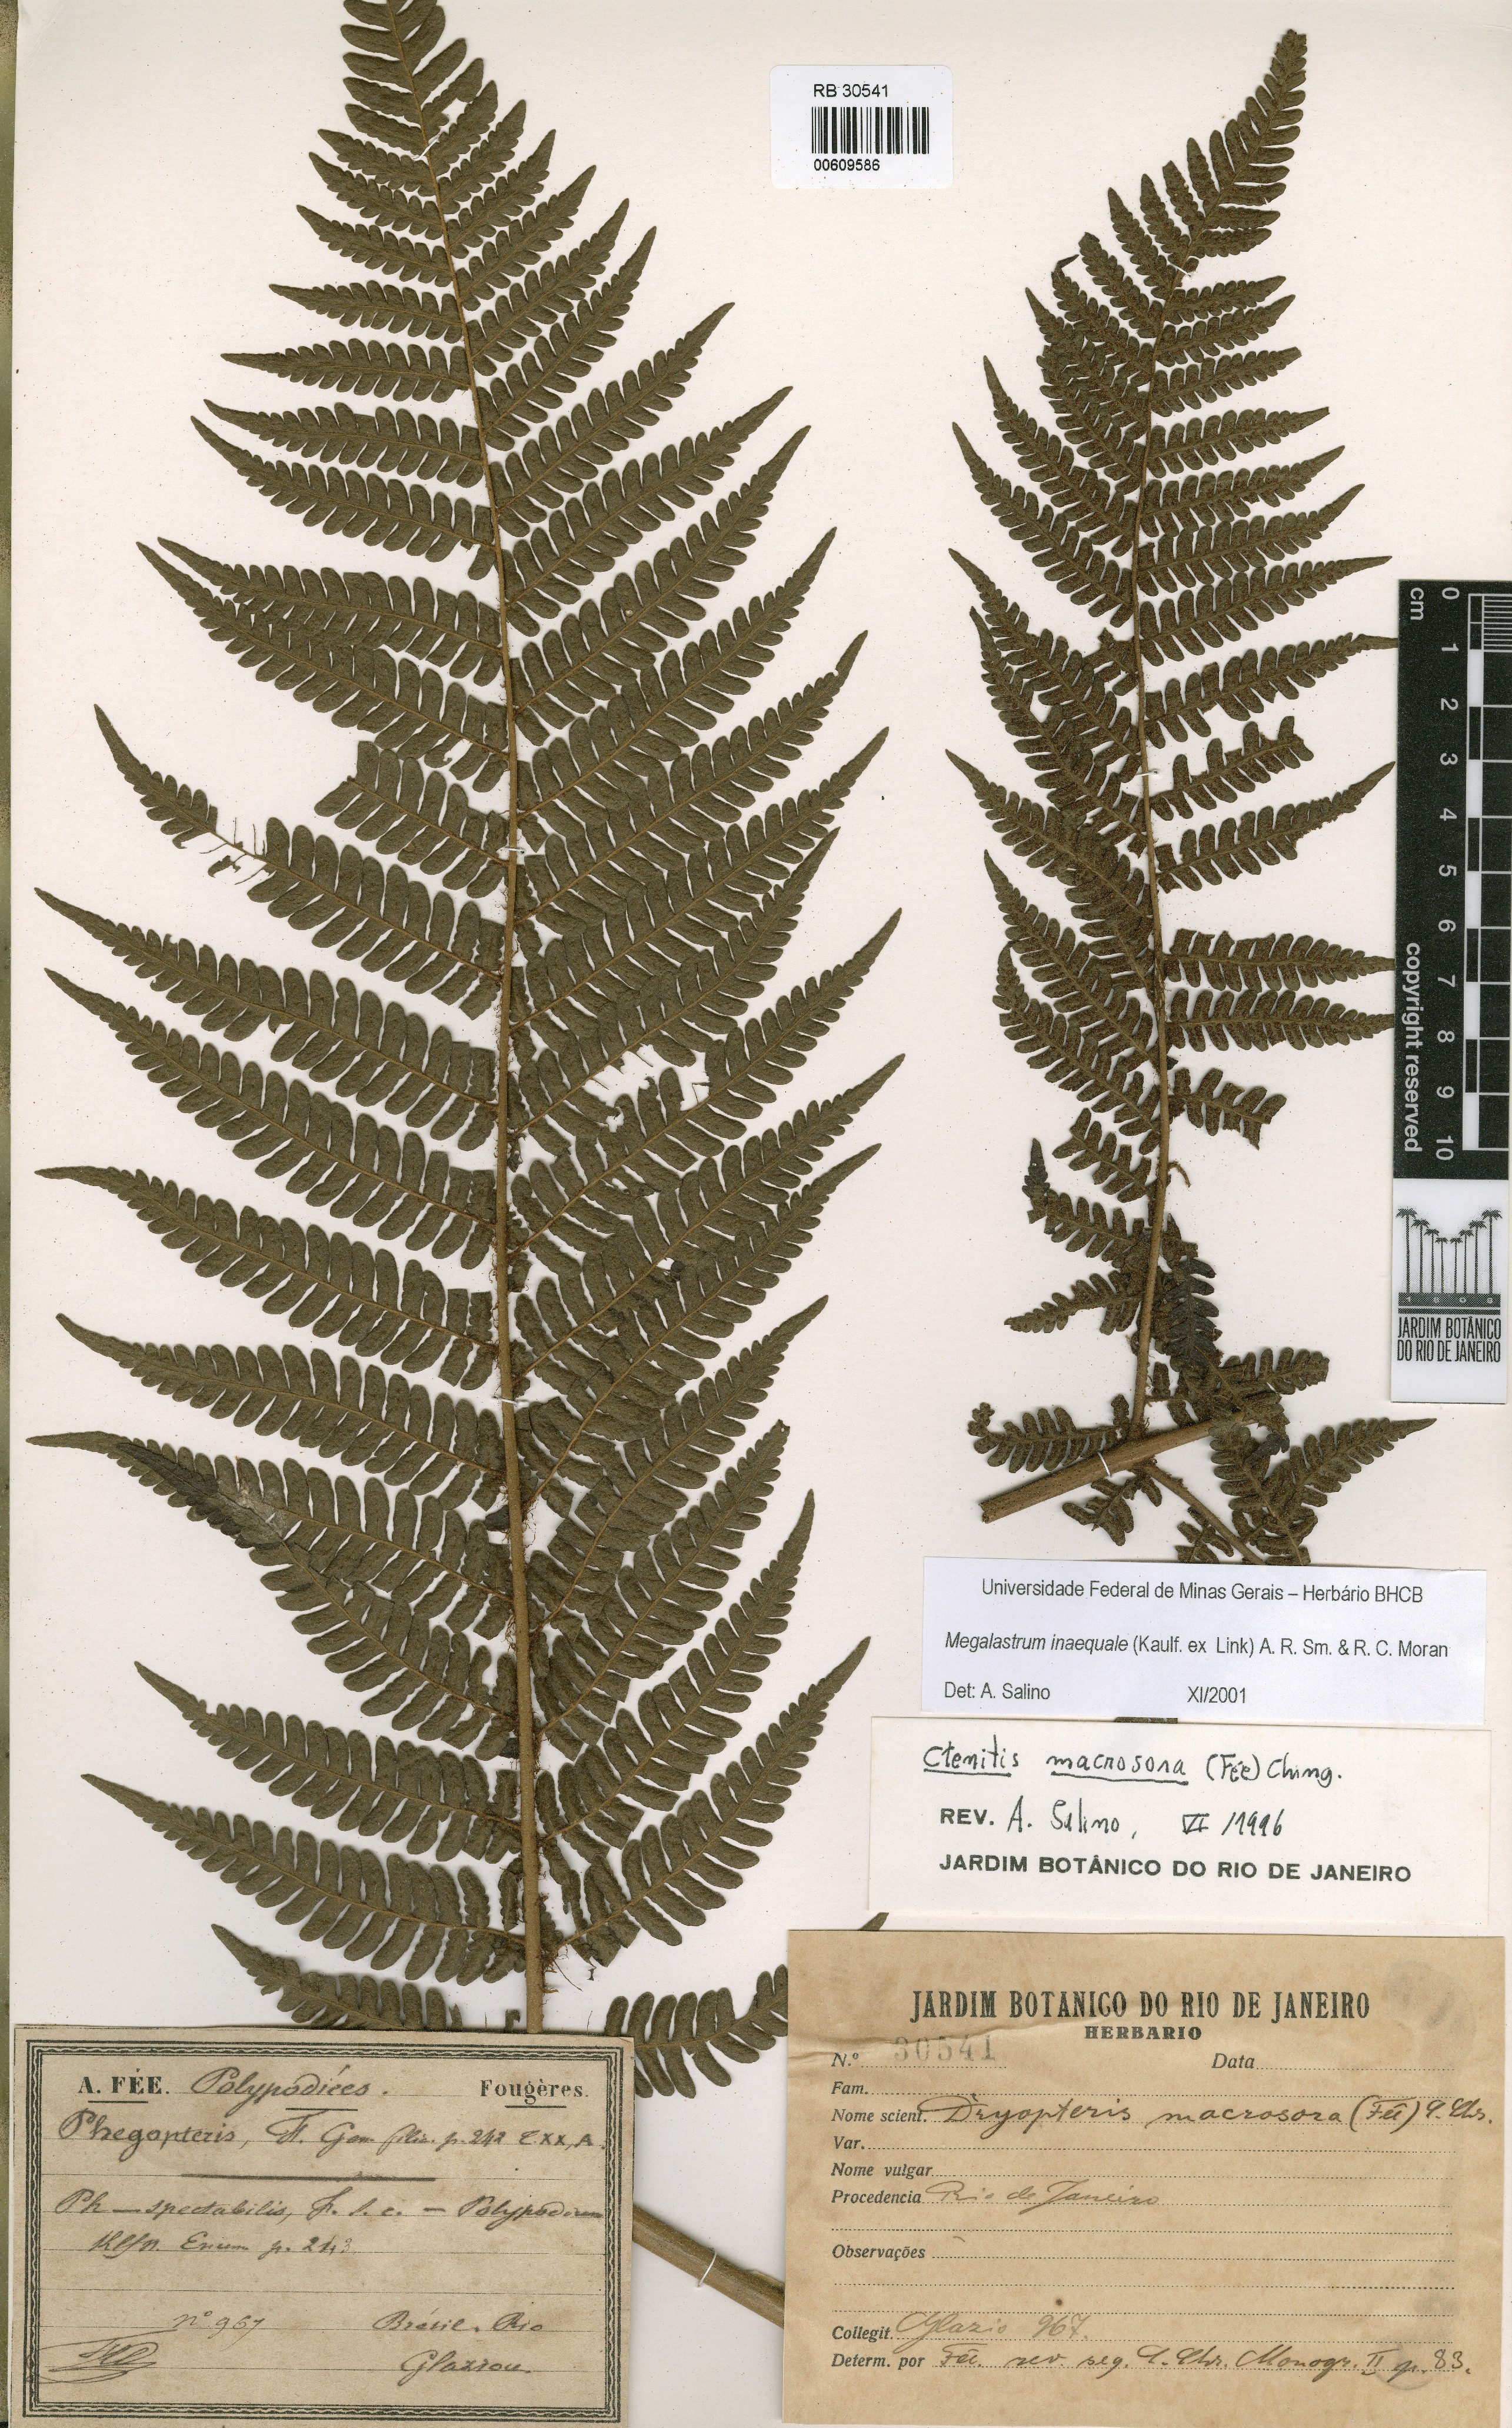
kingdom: Plantae
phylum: Tracheophyta
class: Polypodiopsida
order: Polypodiales
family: Dryopteridaceae
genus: Megalastrum
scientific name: Megalastrum inaequale
